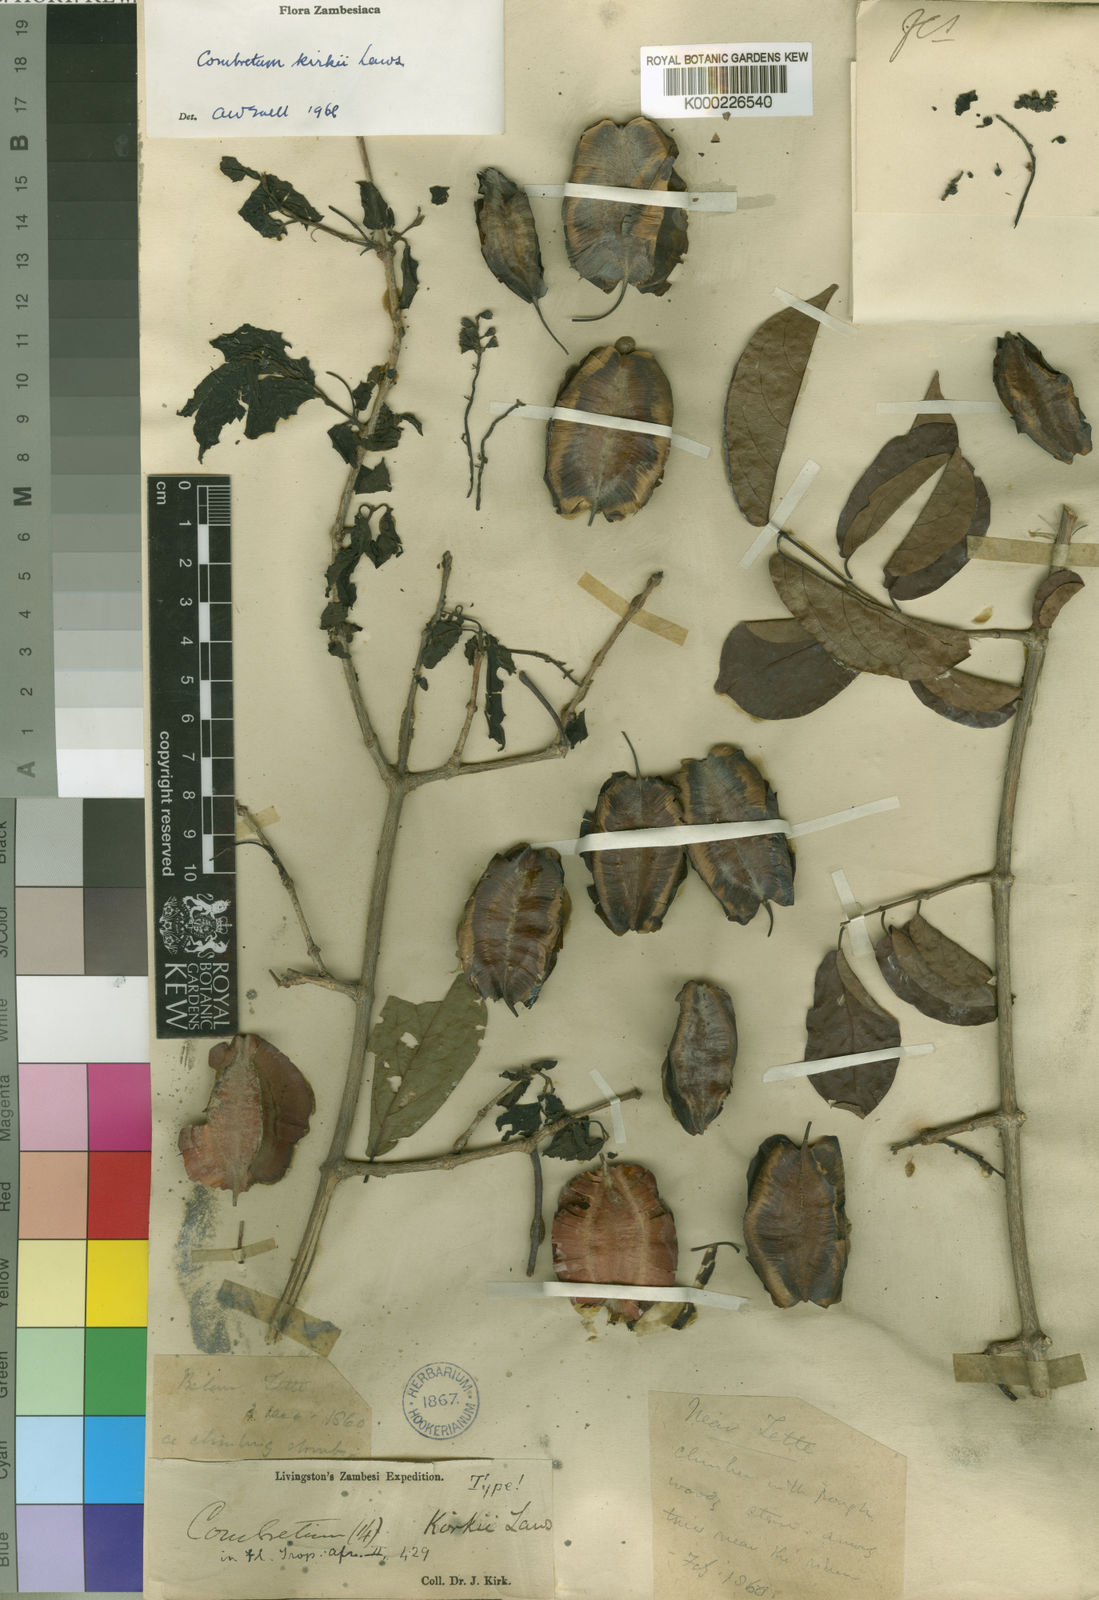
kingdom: Plantae
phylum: Tracheophyta
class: Magnoliopsida
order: Myrtales
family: Combretaceae
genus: Combretum
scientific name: Combretum kirkii
